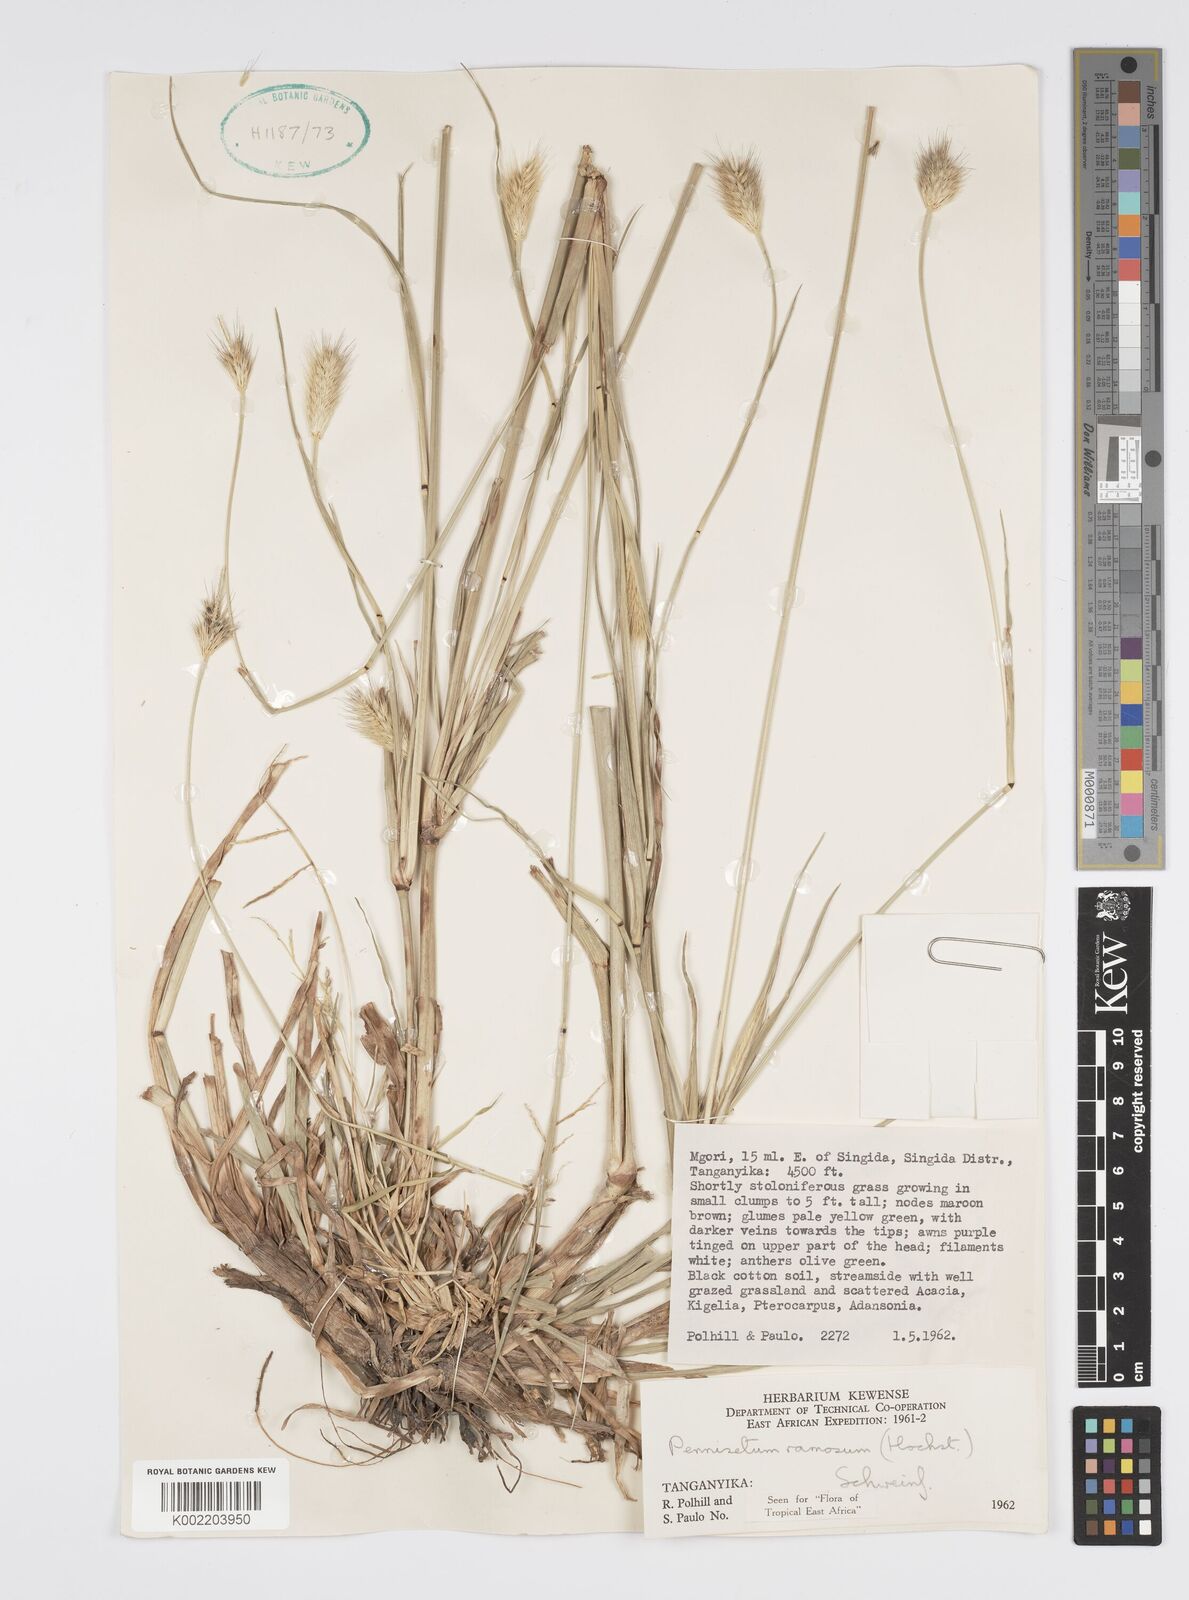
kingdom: Plantae
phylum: Tracheophyta
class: Liliopsida
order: Poales
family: Poaceae
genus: Cenchrus
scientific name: Cenchrus ramosus
